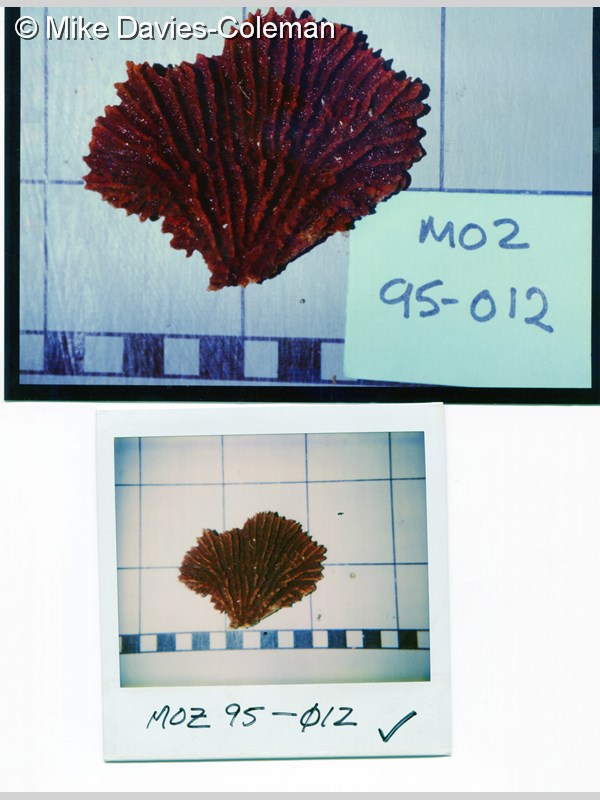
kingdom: Animalia
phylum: Porifera
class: Demospongiae
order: Axinellida
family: Axinellidae
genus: Axinella
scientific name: Axinella weltnerii
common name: Crumpled sponge
